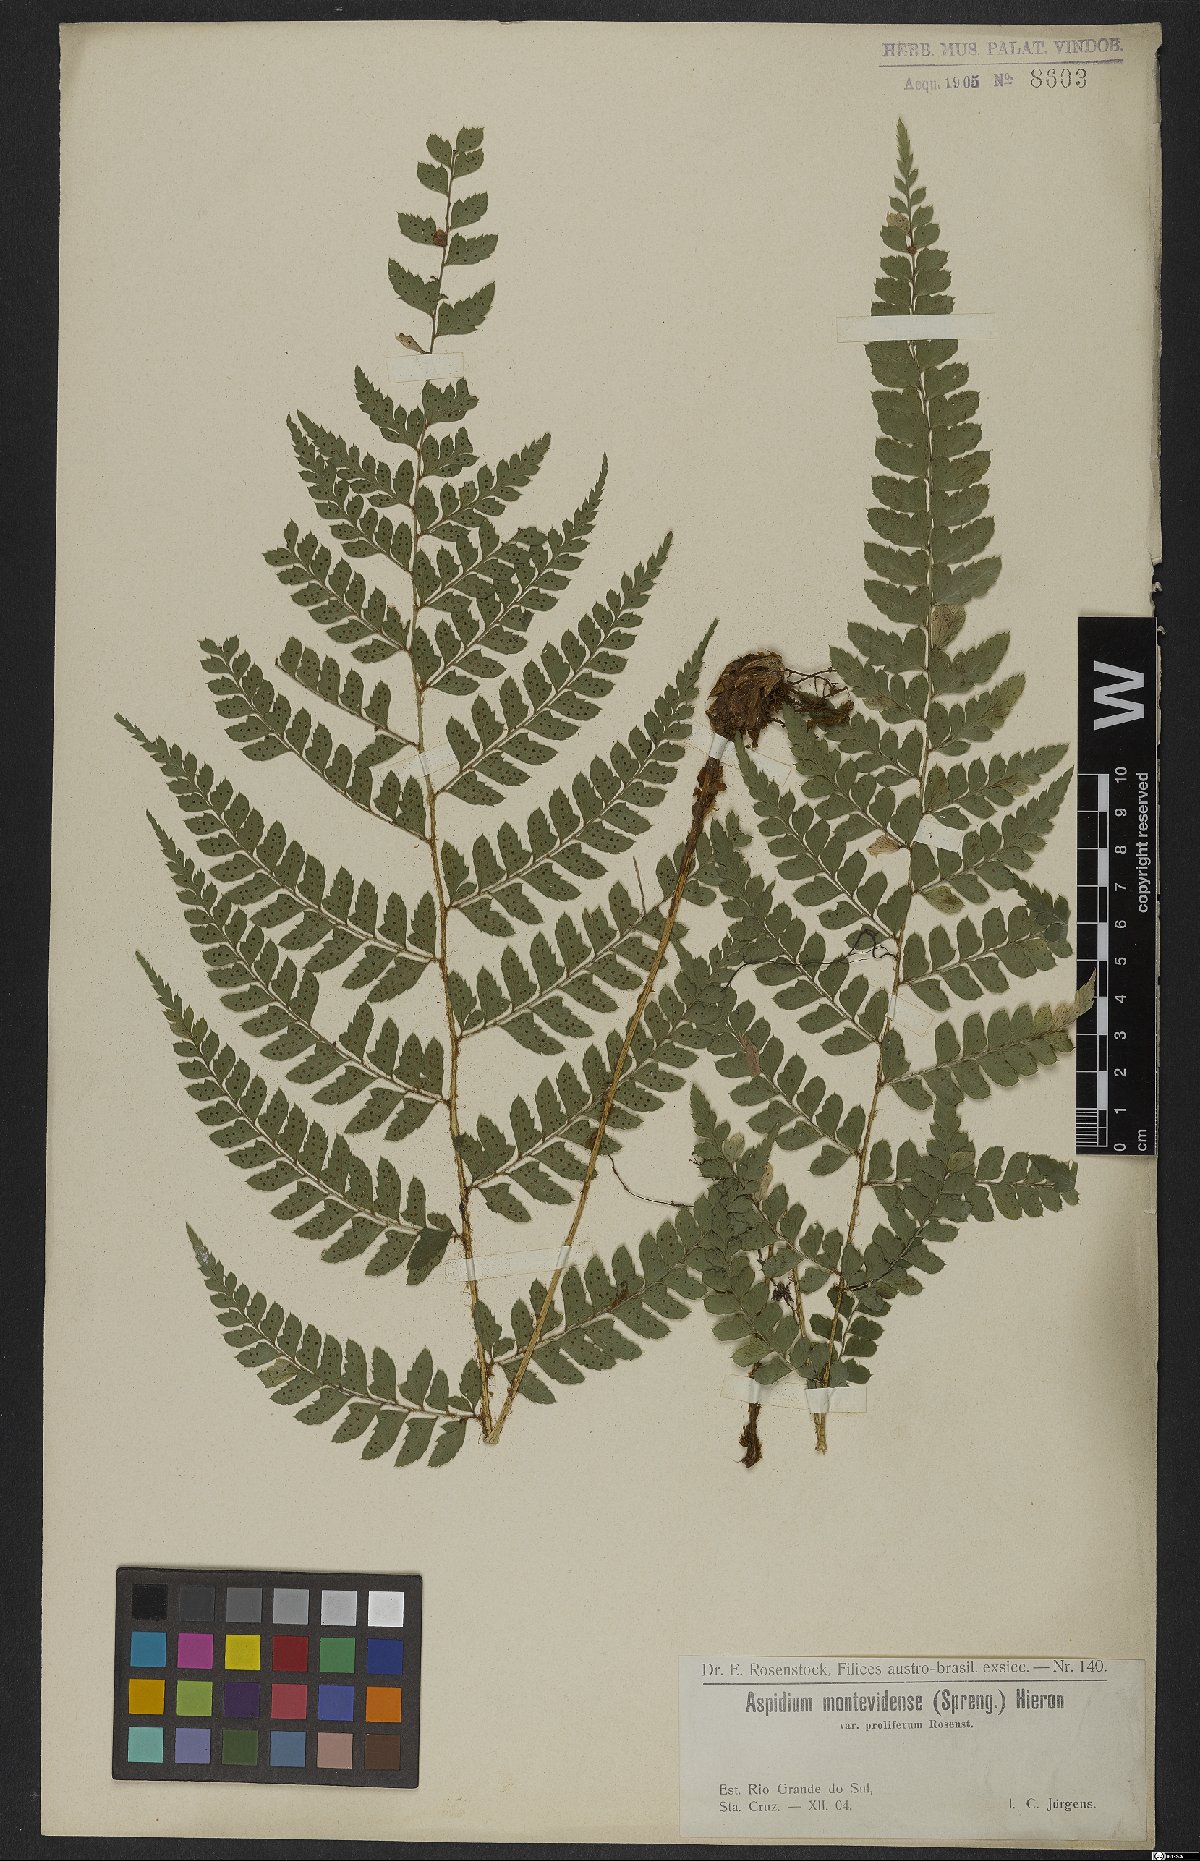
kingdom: Plantae
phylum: Tracheophyta
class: Polypodiopsida
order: Polypodiales
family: Dryopteridaceae
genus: Polystichum
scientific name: Polystichum aculeatum
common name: Hard shield-fern
